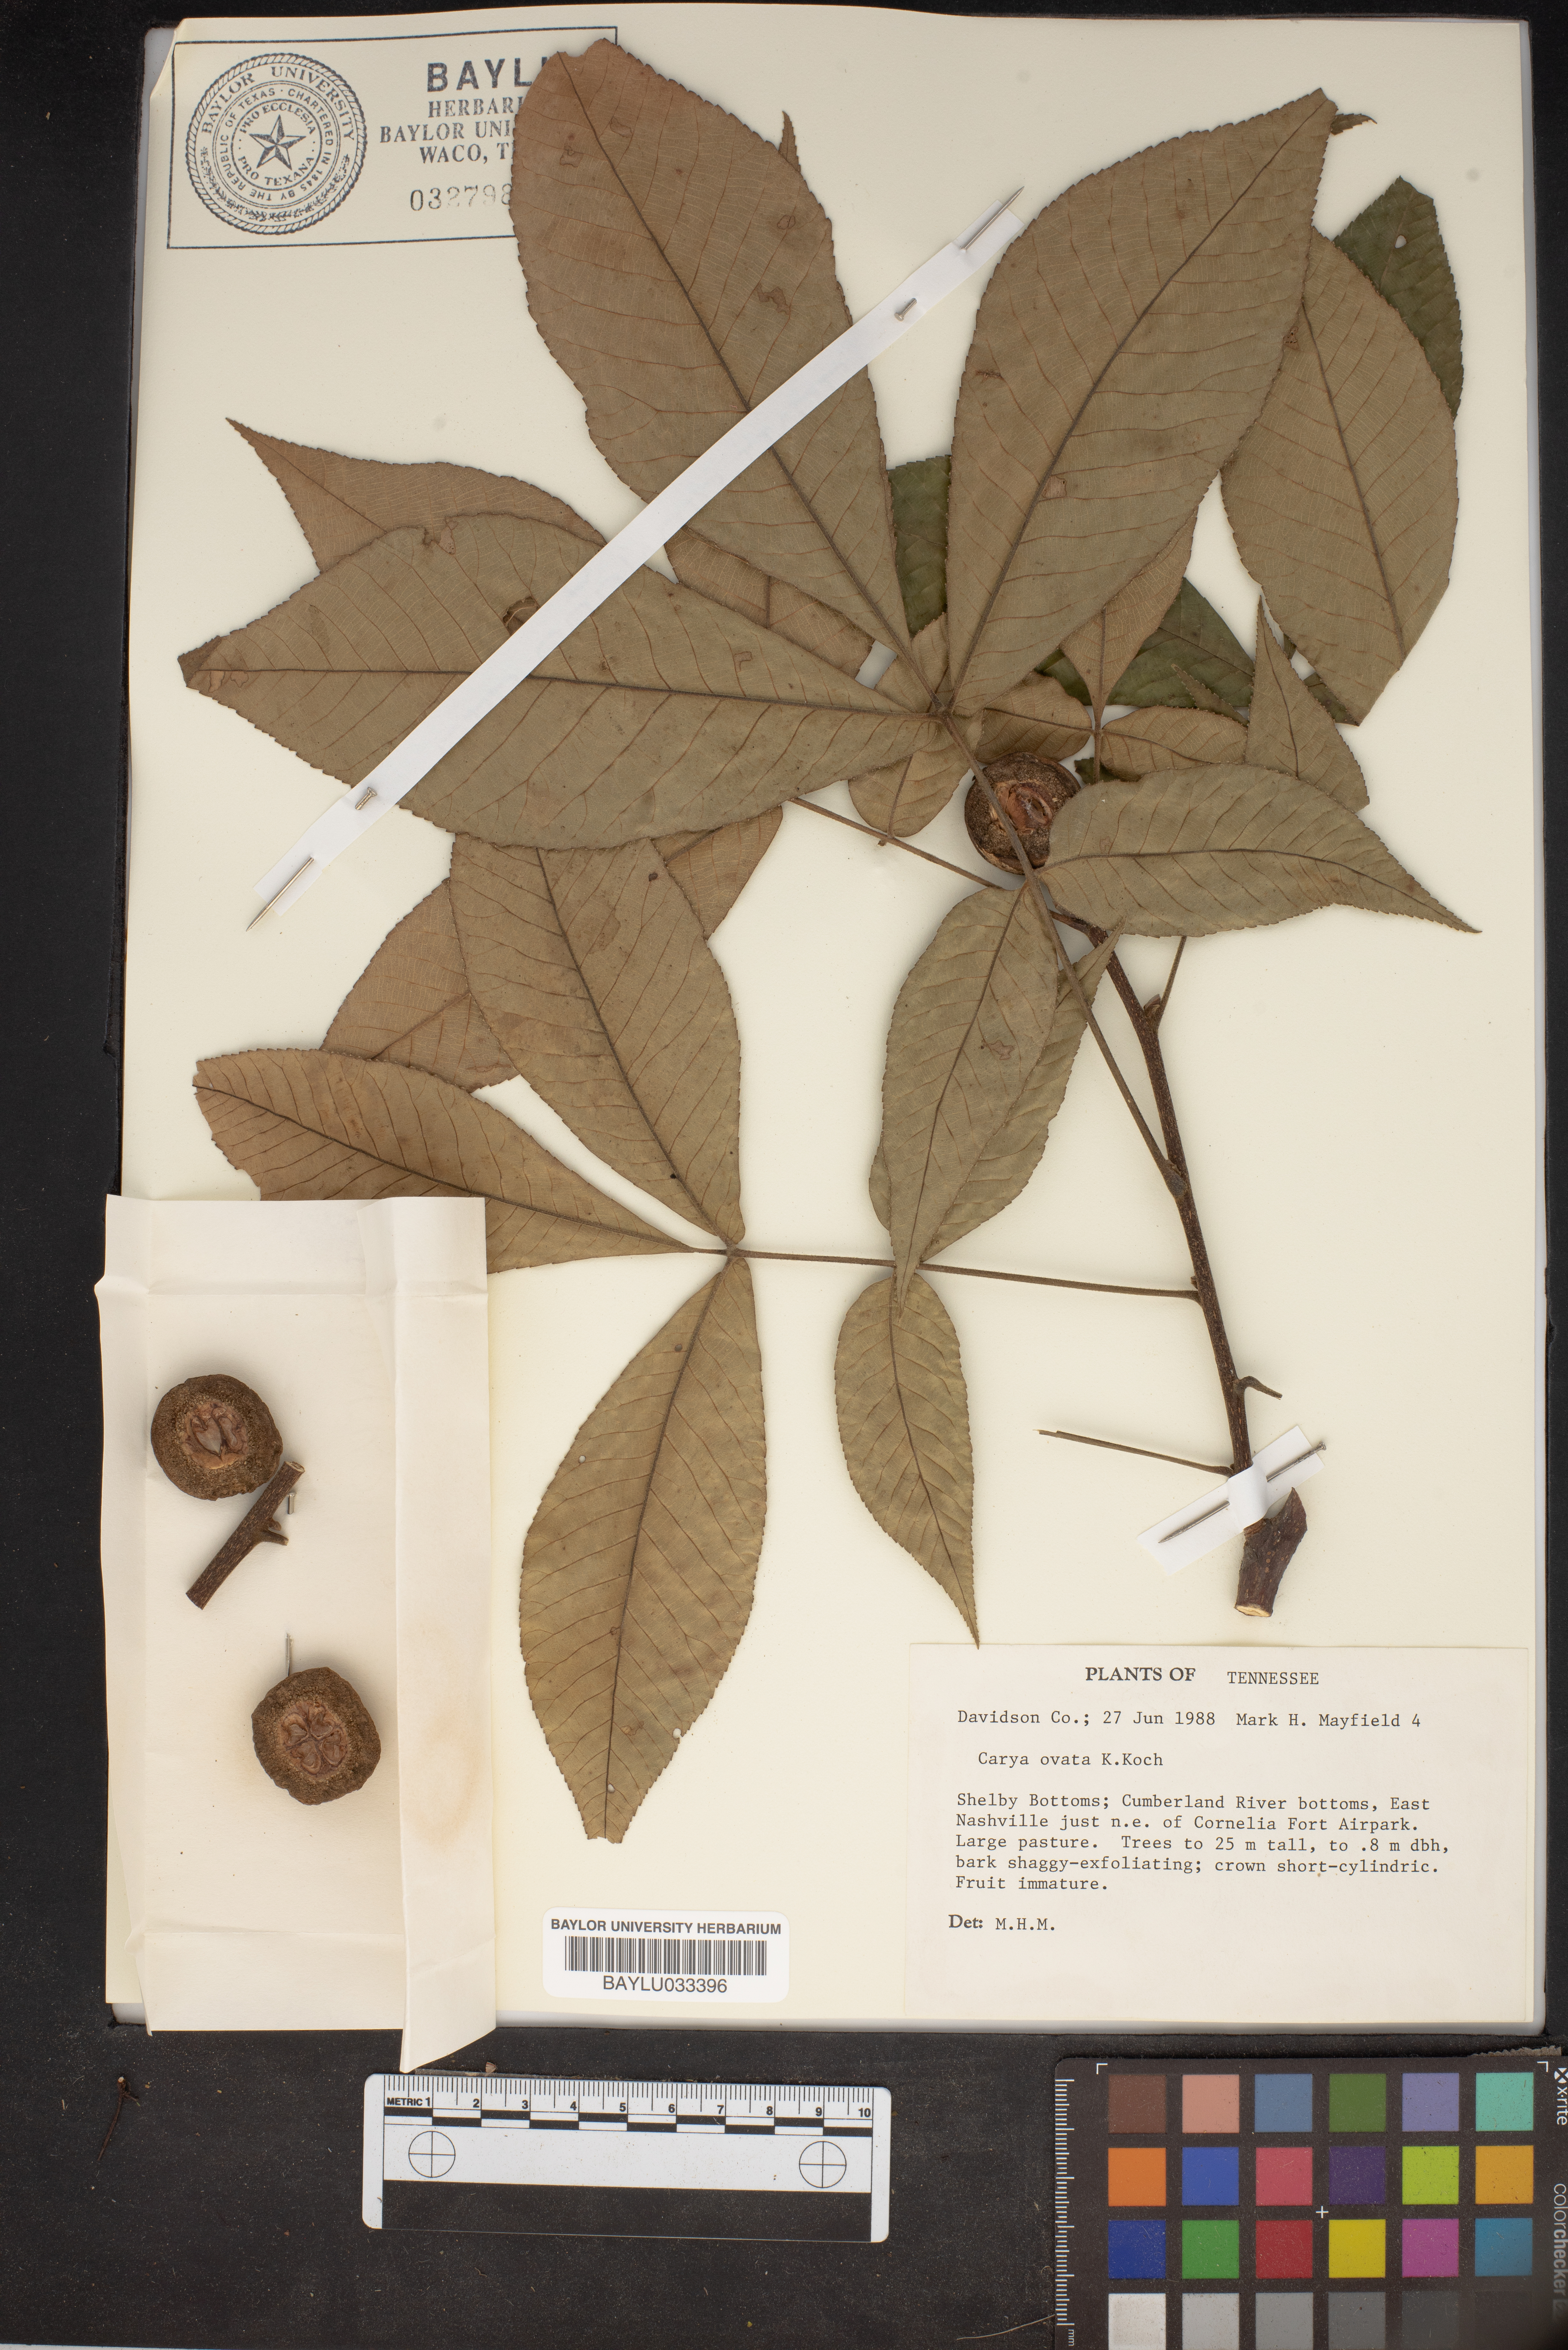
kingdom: Plantae
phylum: Tracheophyta
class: Magnoliopsida
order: Fagales
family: Juglandaceae
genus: Carya
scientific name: Carya ovata
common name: Shagbark hickory
